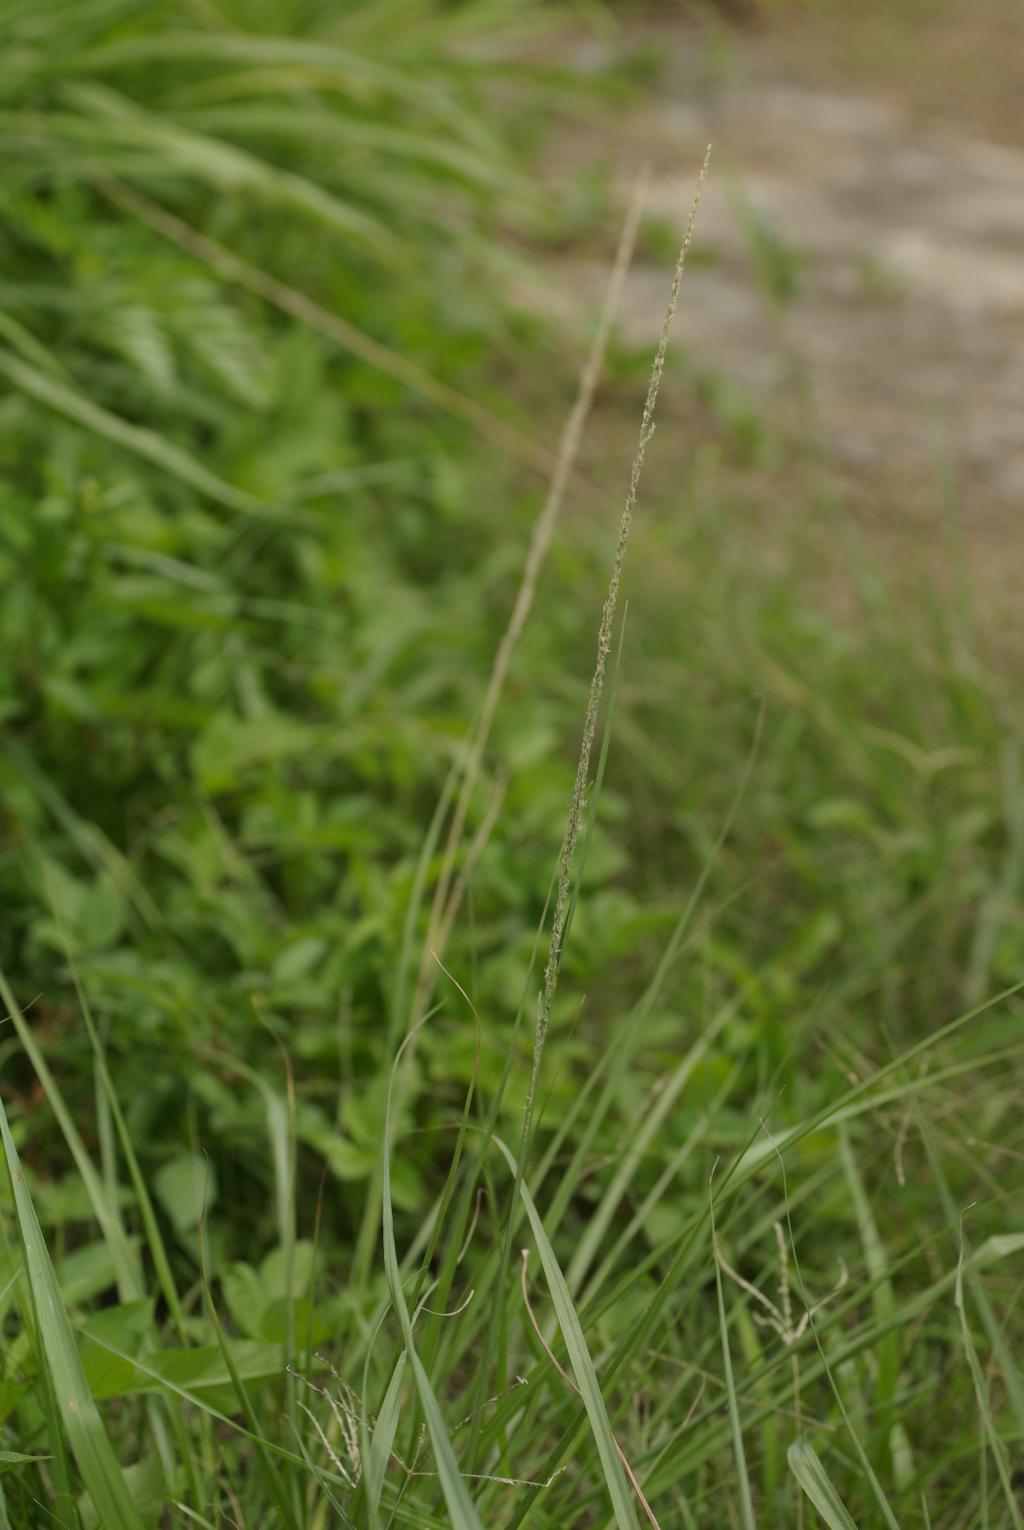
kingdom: Plantae
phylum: Tracheophyta
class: Liliopsida
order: Poales
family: Poaceae
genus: Sporobolus
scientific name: Sporobolus fertilis
